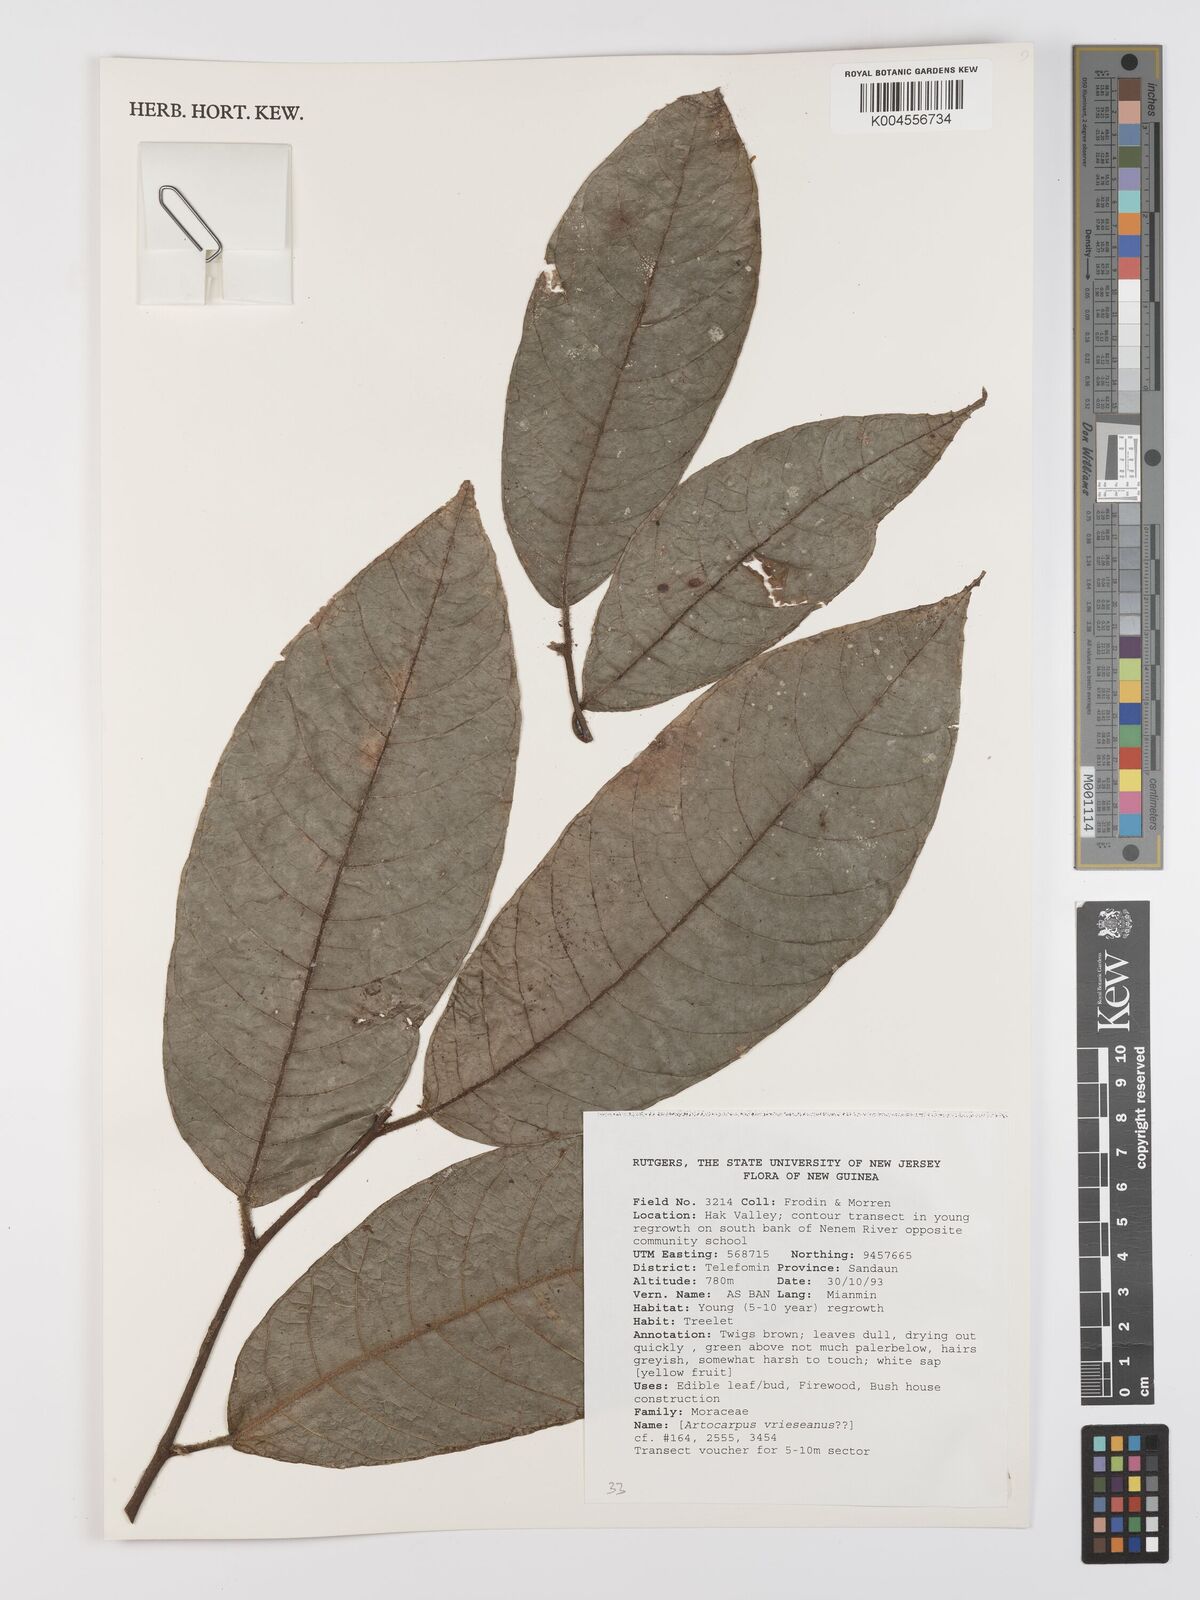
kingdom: Plantae
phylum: Tracheophyta
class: Magnoliopsida
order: Rosales
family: Moraceae
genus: Artocarpus
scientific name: Artocarpus vrieseanus
